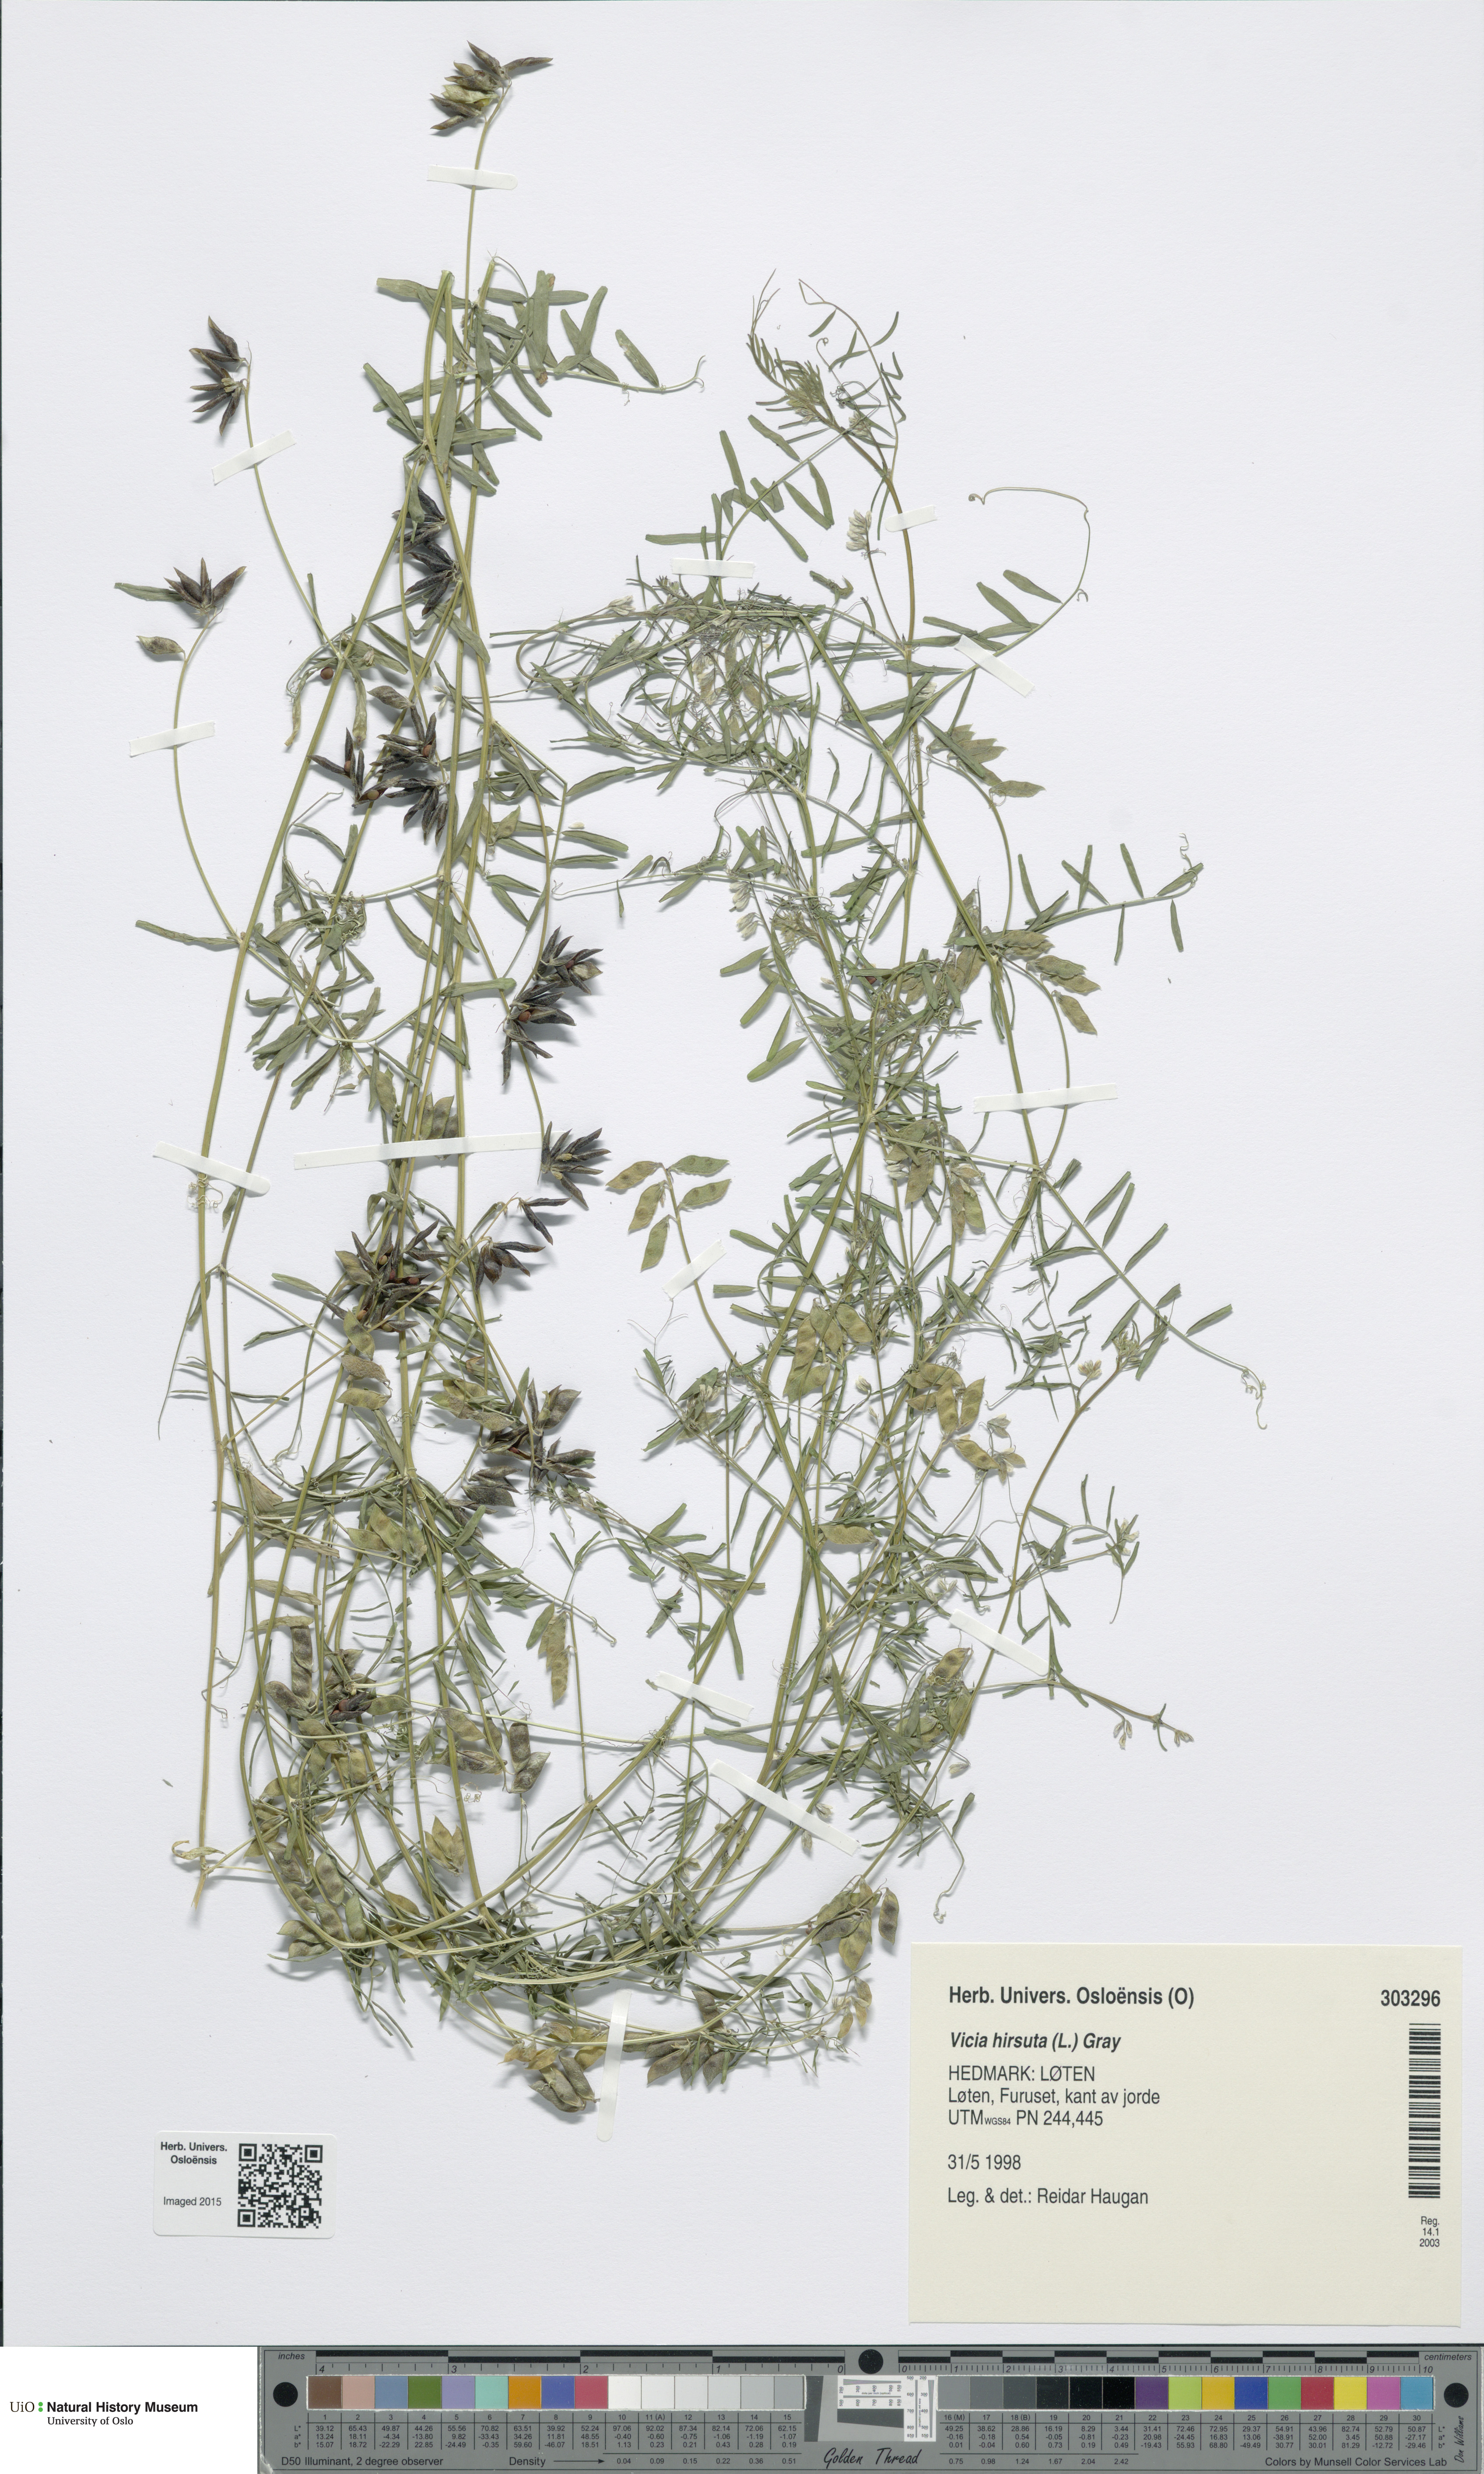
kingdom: Plantae
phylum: Tracheophyta
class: Magnoliopsida
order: Fabales
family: Fabaceae
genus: Vicia
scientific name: Vicia hirsuta
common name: Tiny vetch
